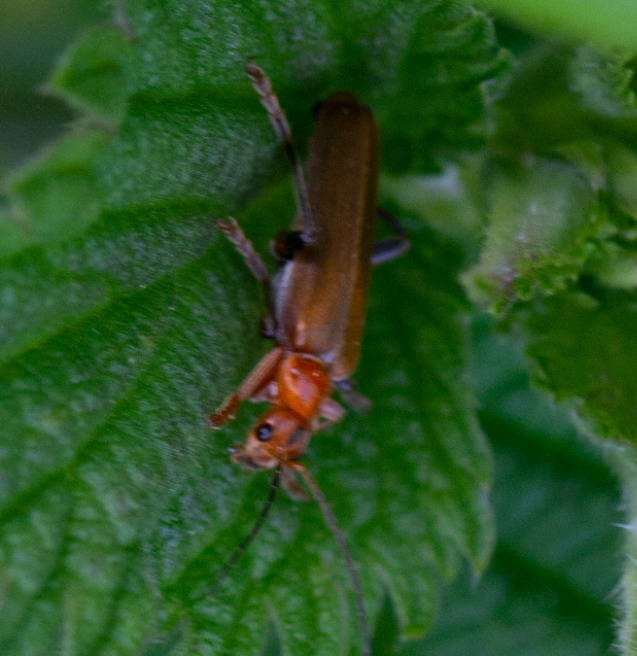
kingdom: Animalia
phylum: Arthropoda
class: Insecta
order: Coleoptera
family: Cantharidae
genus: Cantharis
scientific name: Cantharis livida
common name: Gul blødvinge
